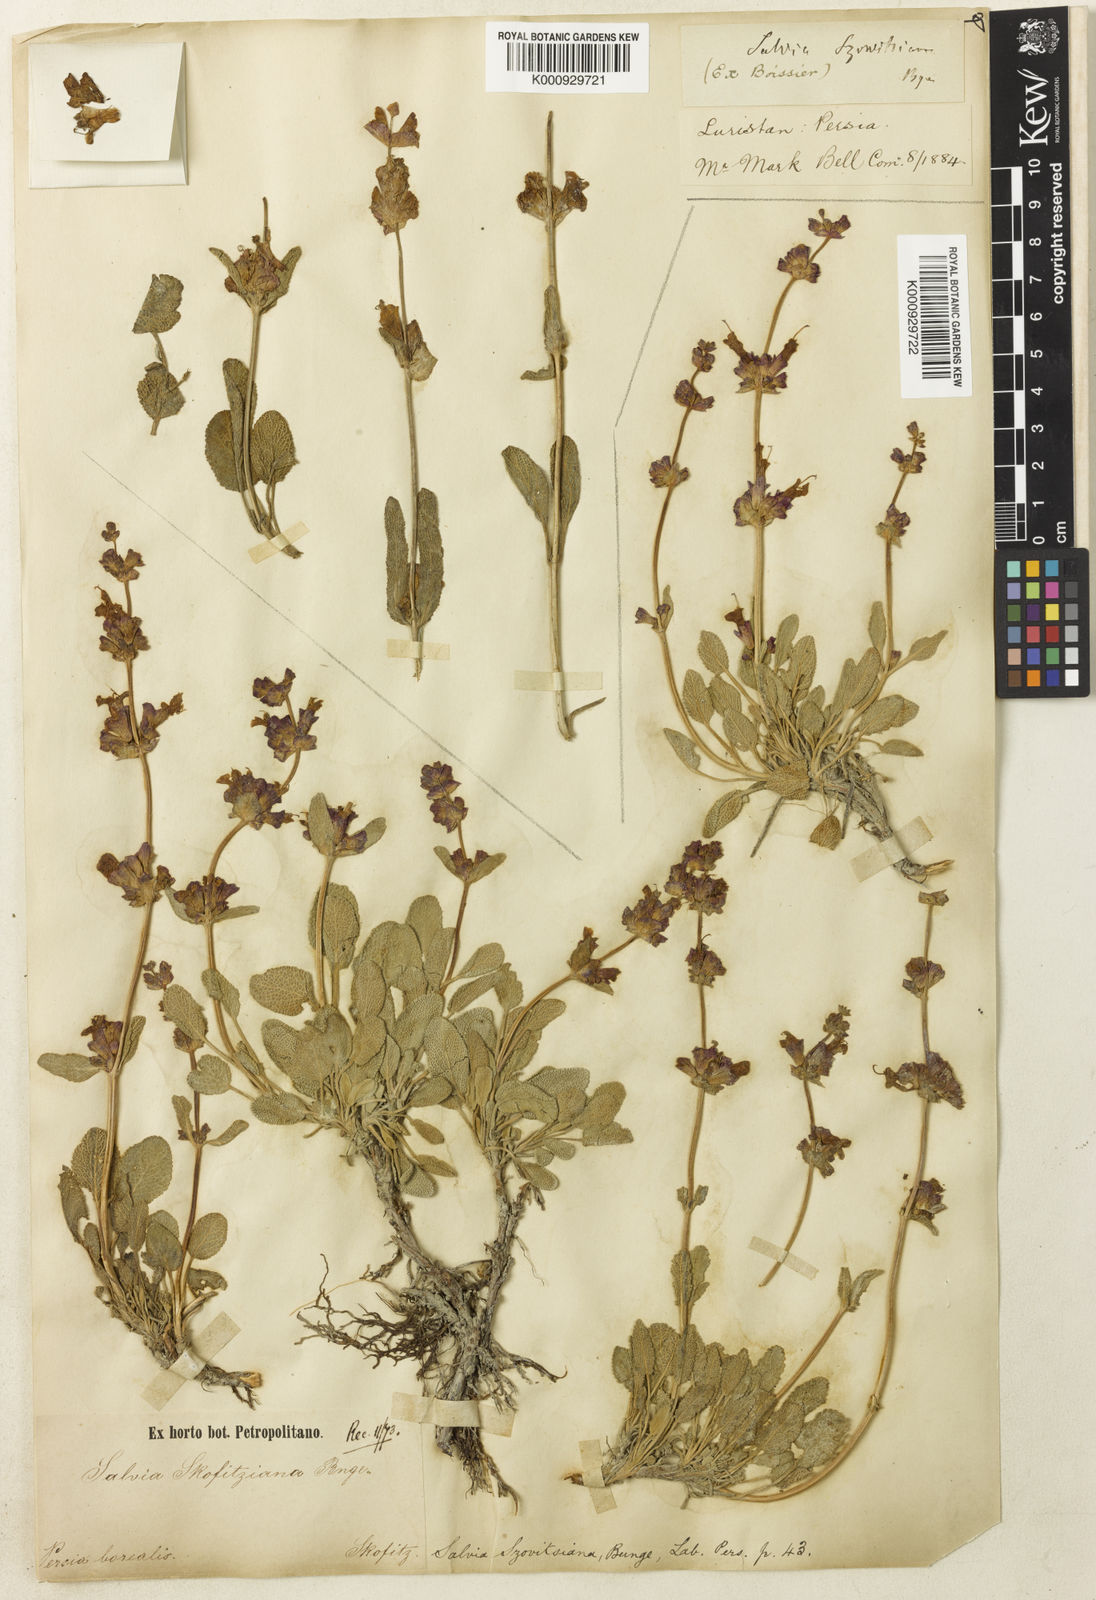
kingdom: Plantae
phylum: Tracheophyta
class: Magnoliopsida
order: Lamiales
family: Lamiaceae
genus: Salvia
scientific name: Salvia multicaulis
